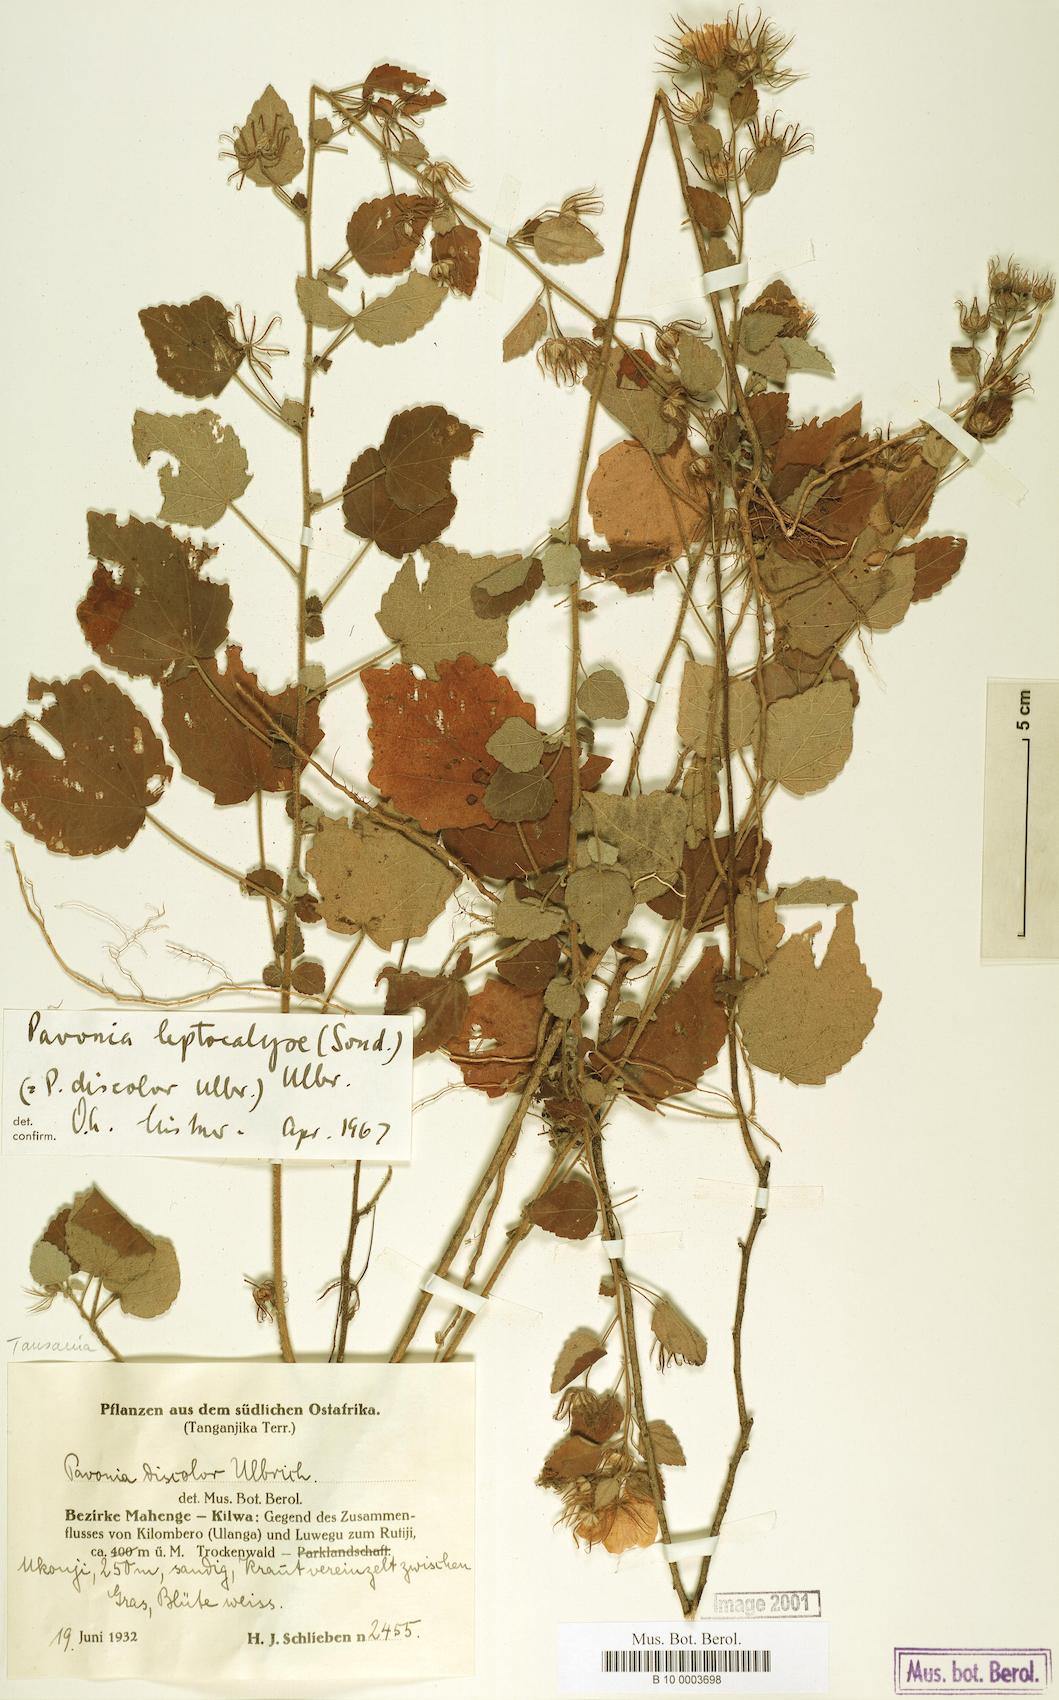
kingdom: Plantae
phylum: Tracheophyta
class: Magnoliopsida
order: Malvales
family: Malvaceae
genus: Pavonia
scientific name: Pavonia leptocalyx
